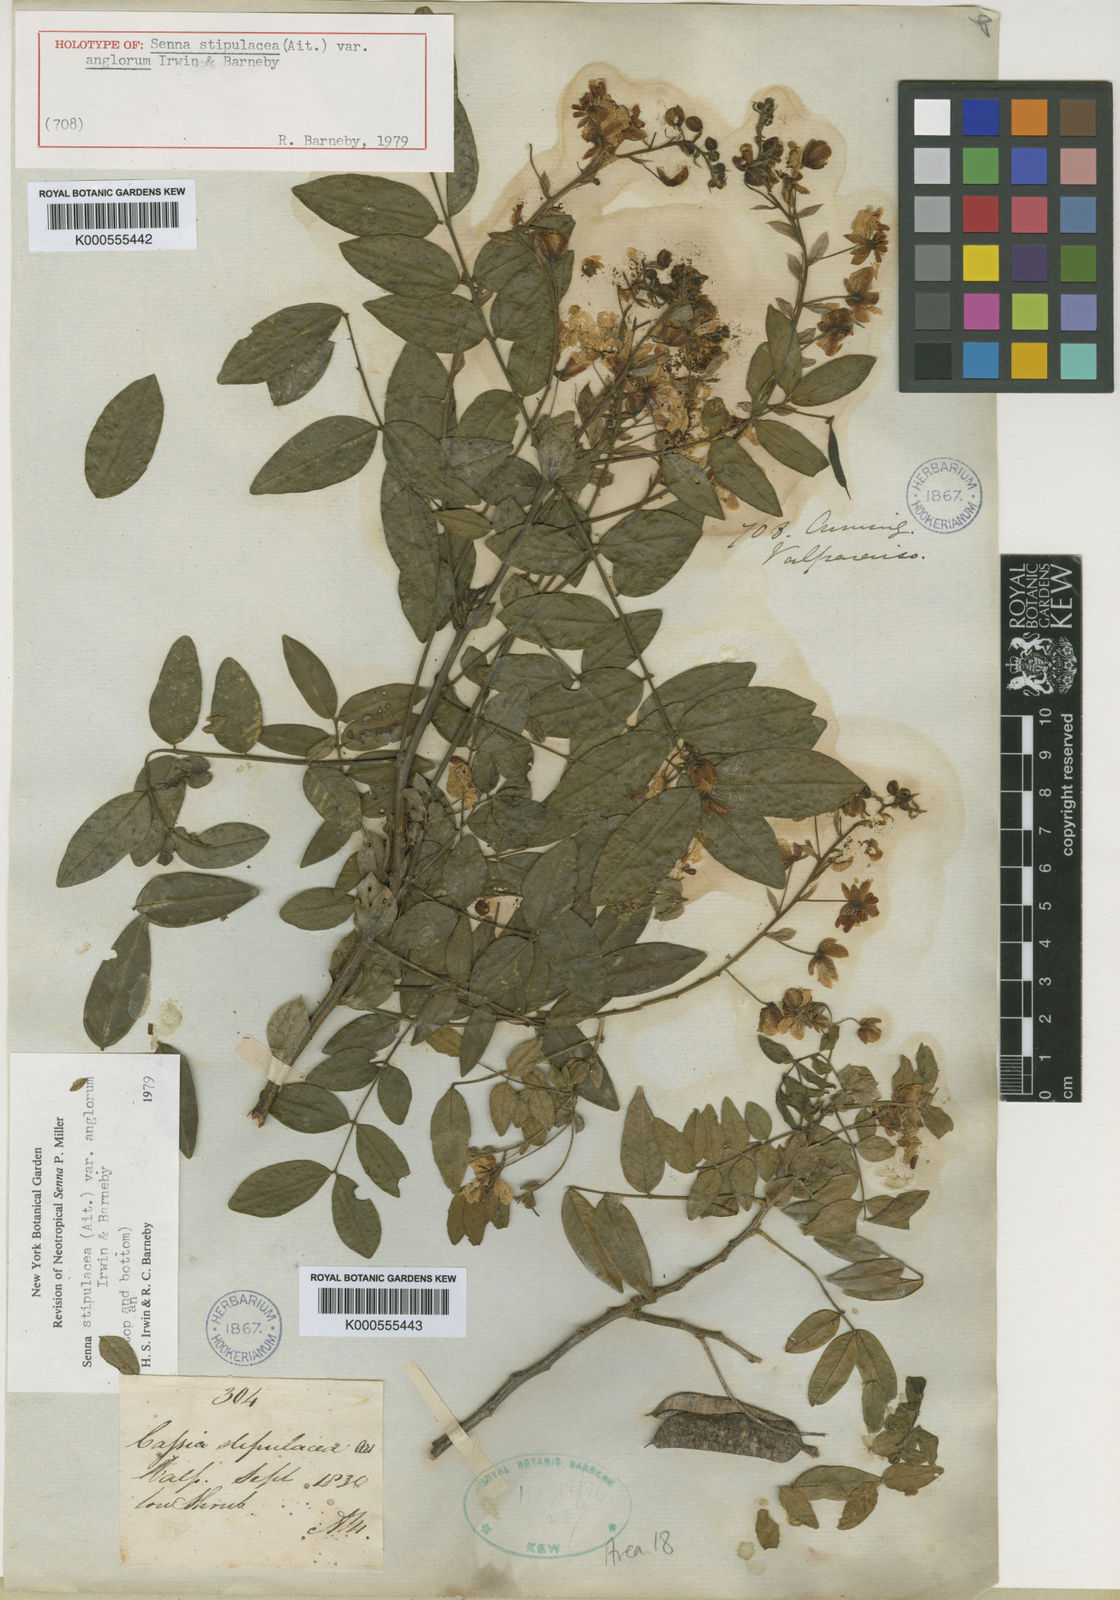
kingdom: Plantae
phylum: Tracheophyta
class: Magnoliopsida
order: Fabales
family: Fabaceae
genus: Senna
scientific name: Senna stipulacea
